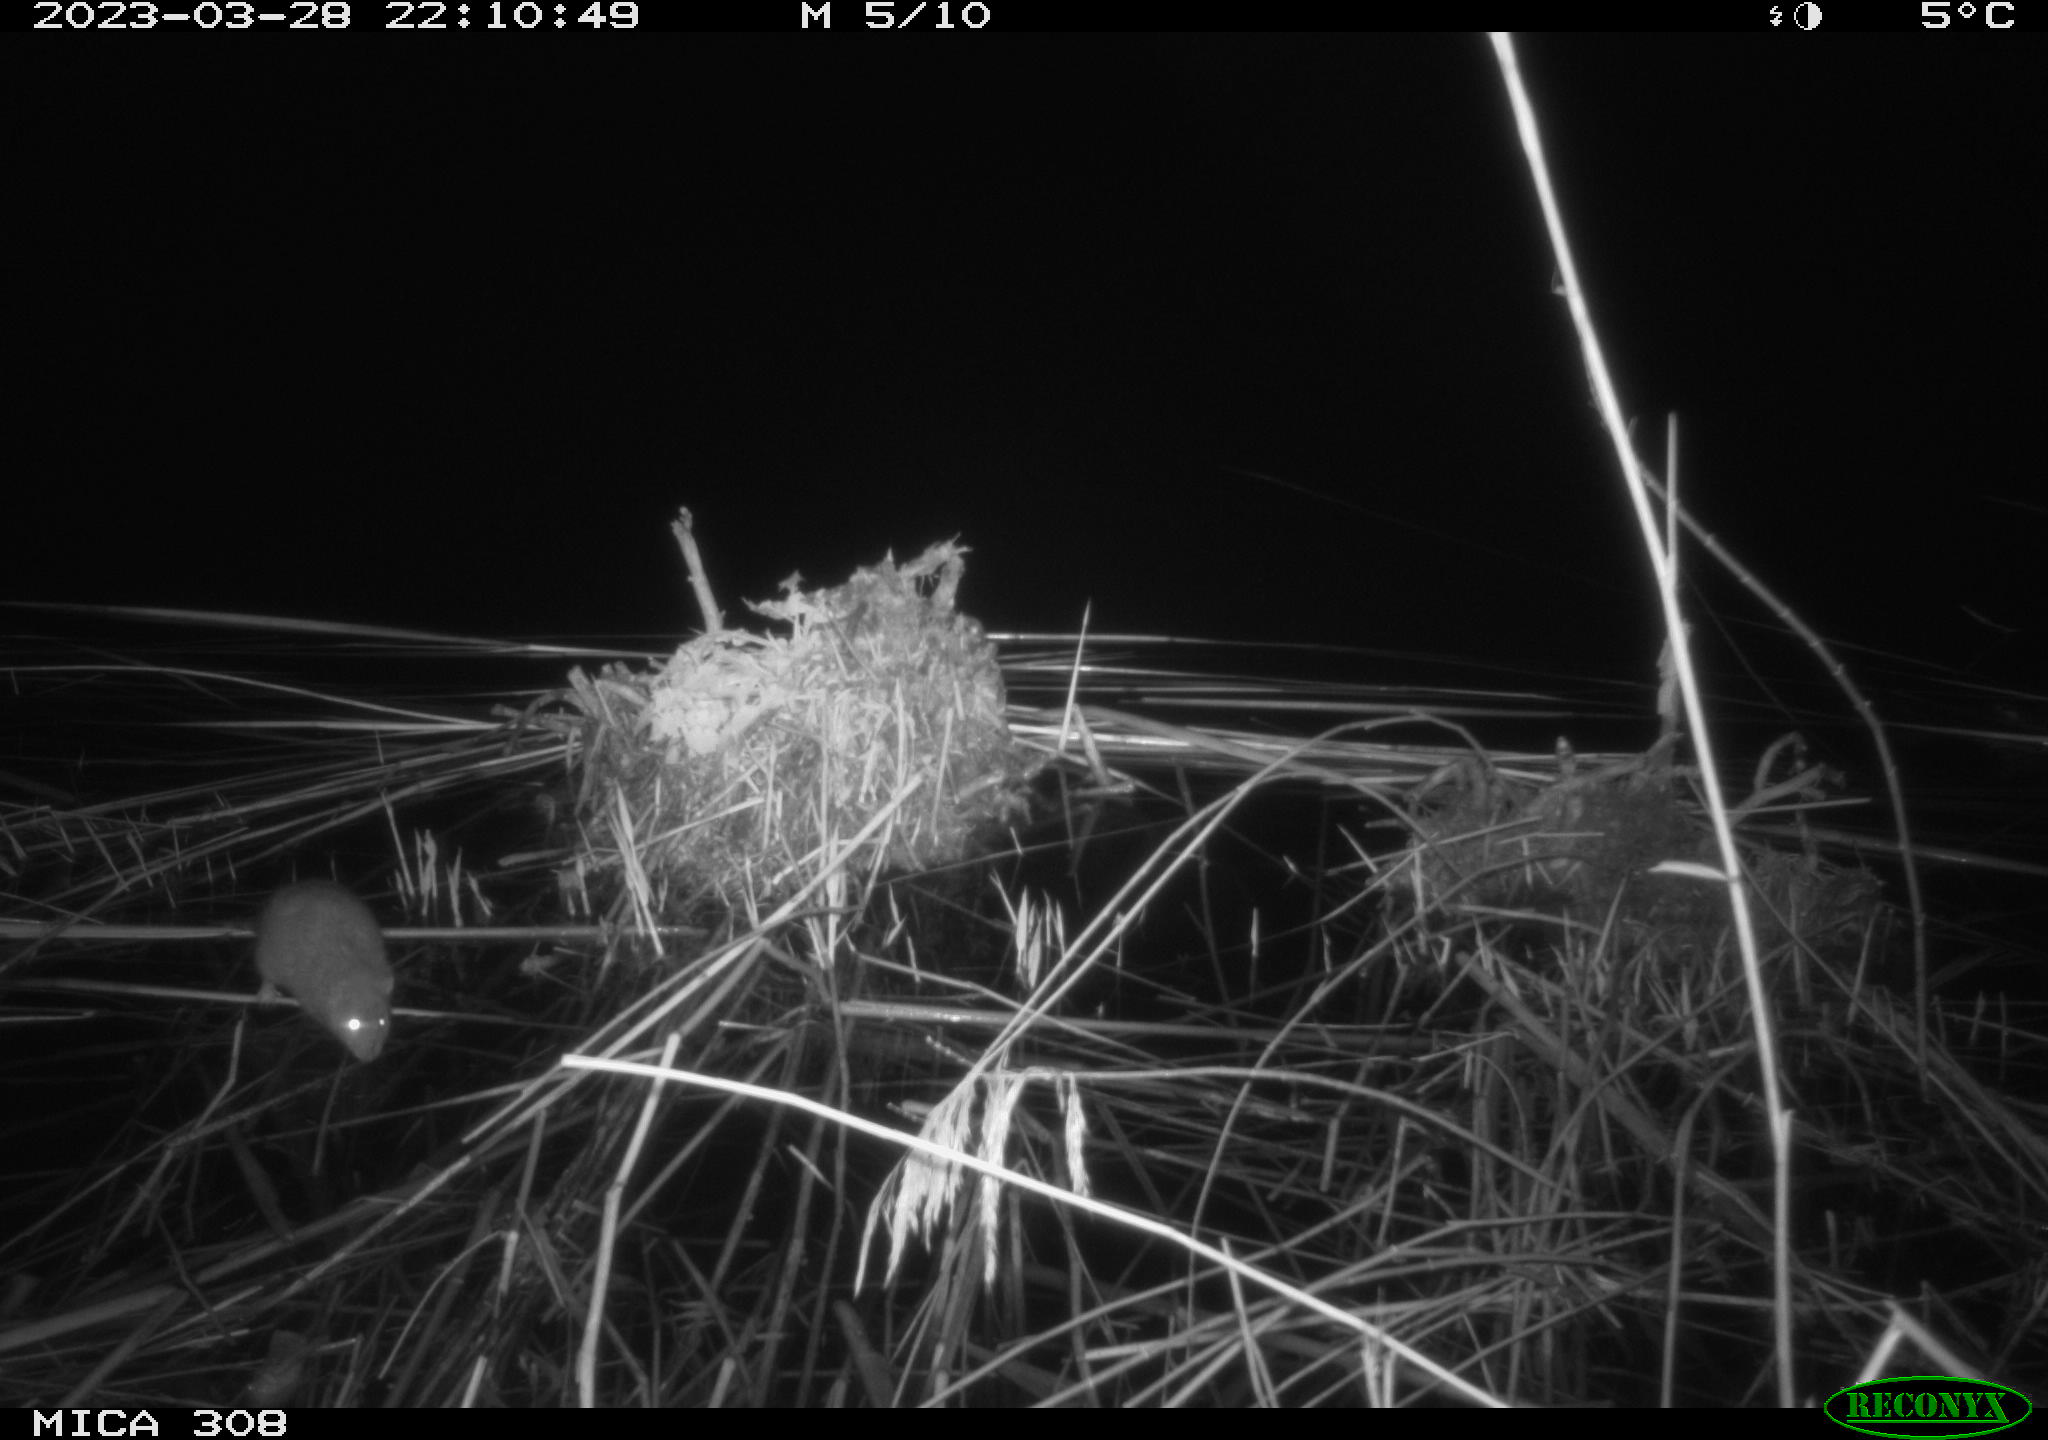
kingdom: Animalia
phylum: Chordata
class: Mammalia
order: Rodentia
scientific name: Rodentia
